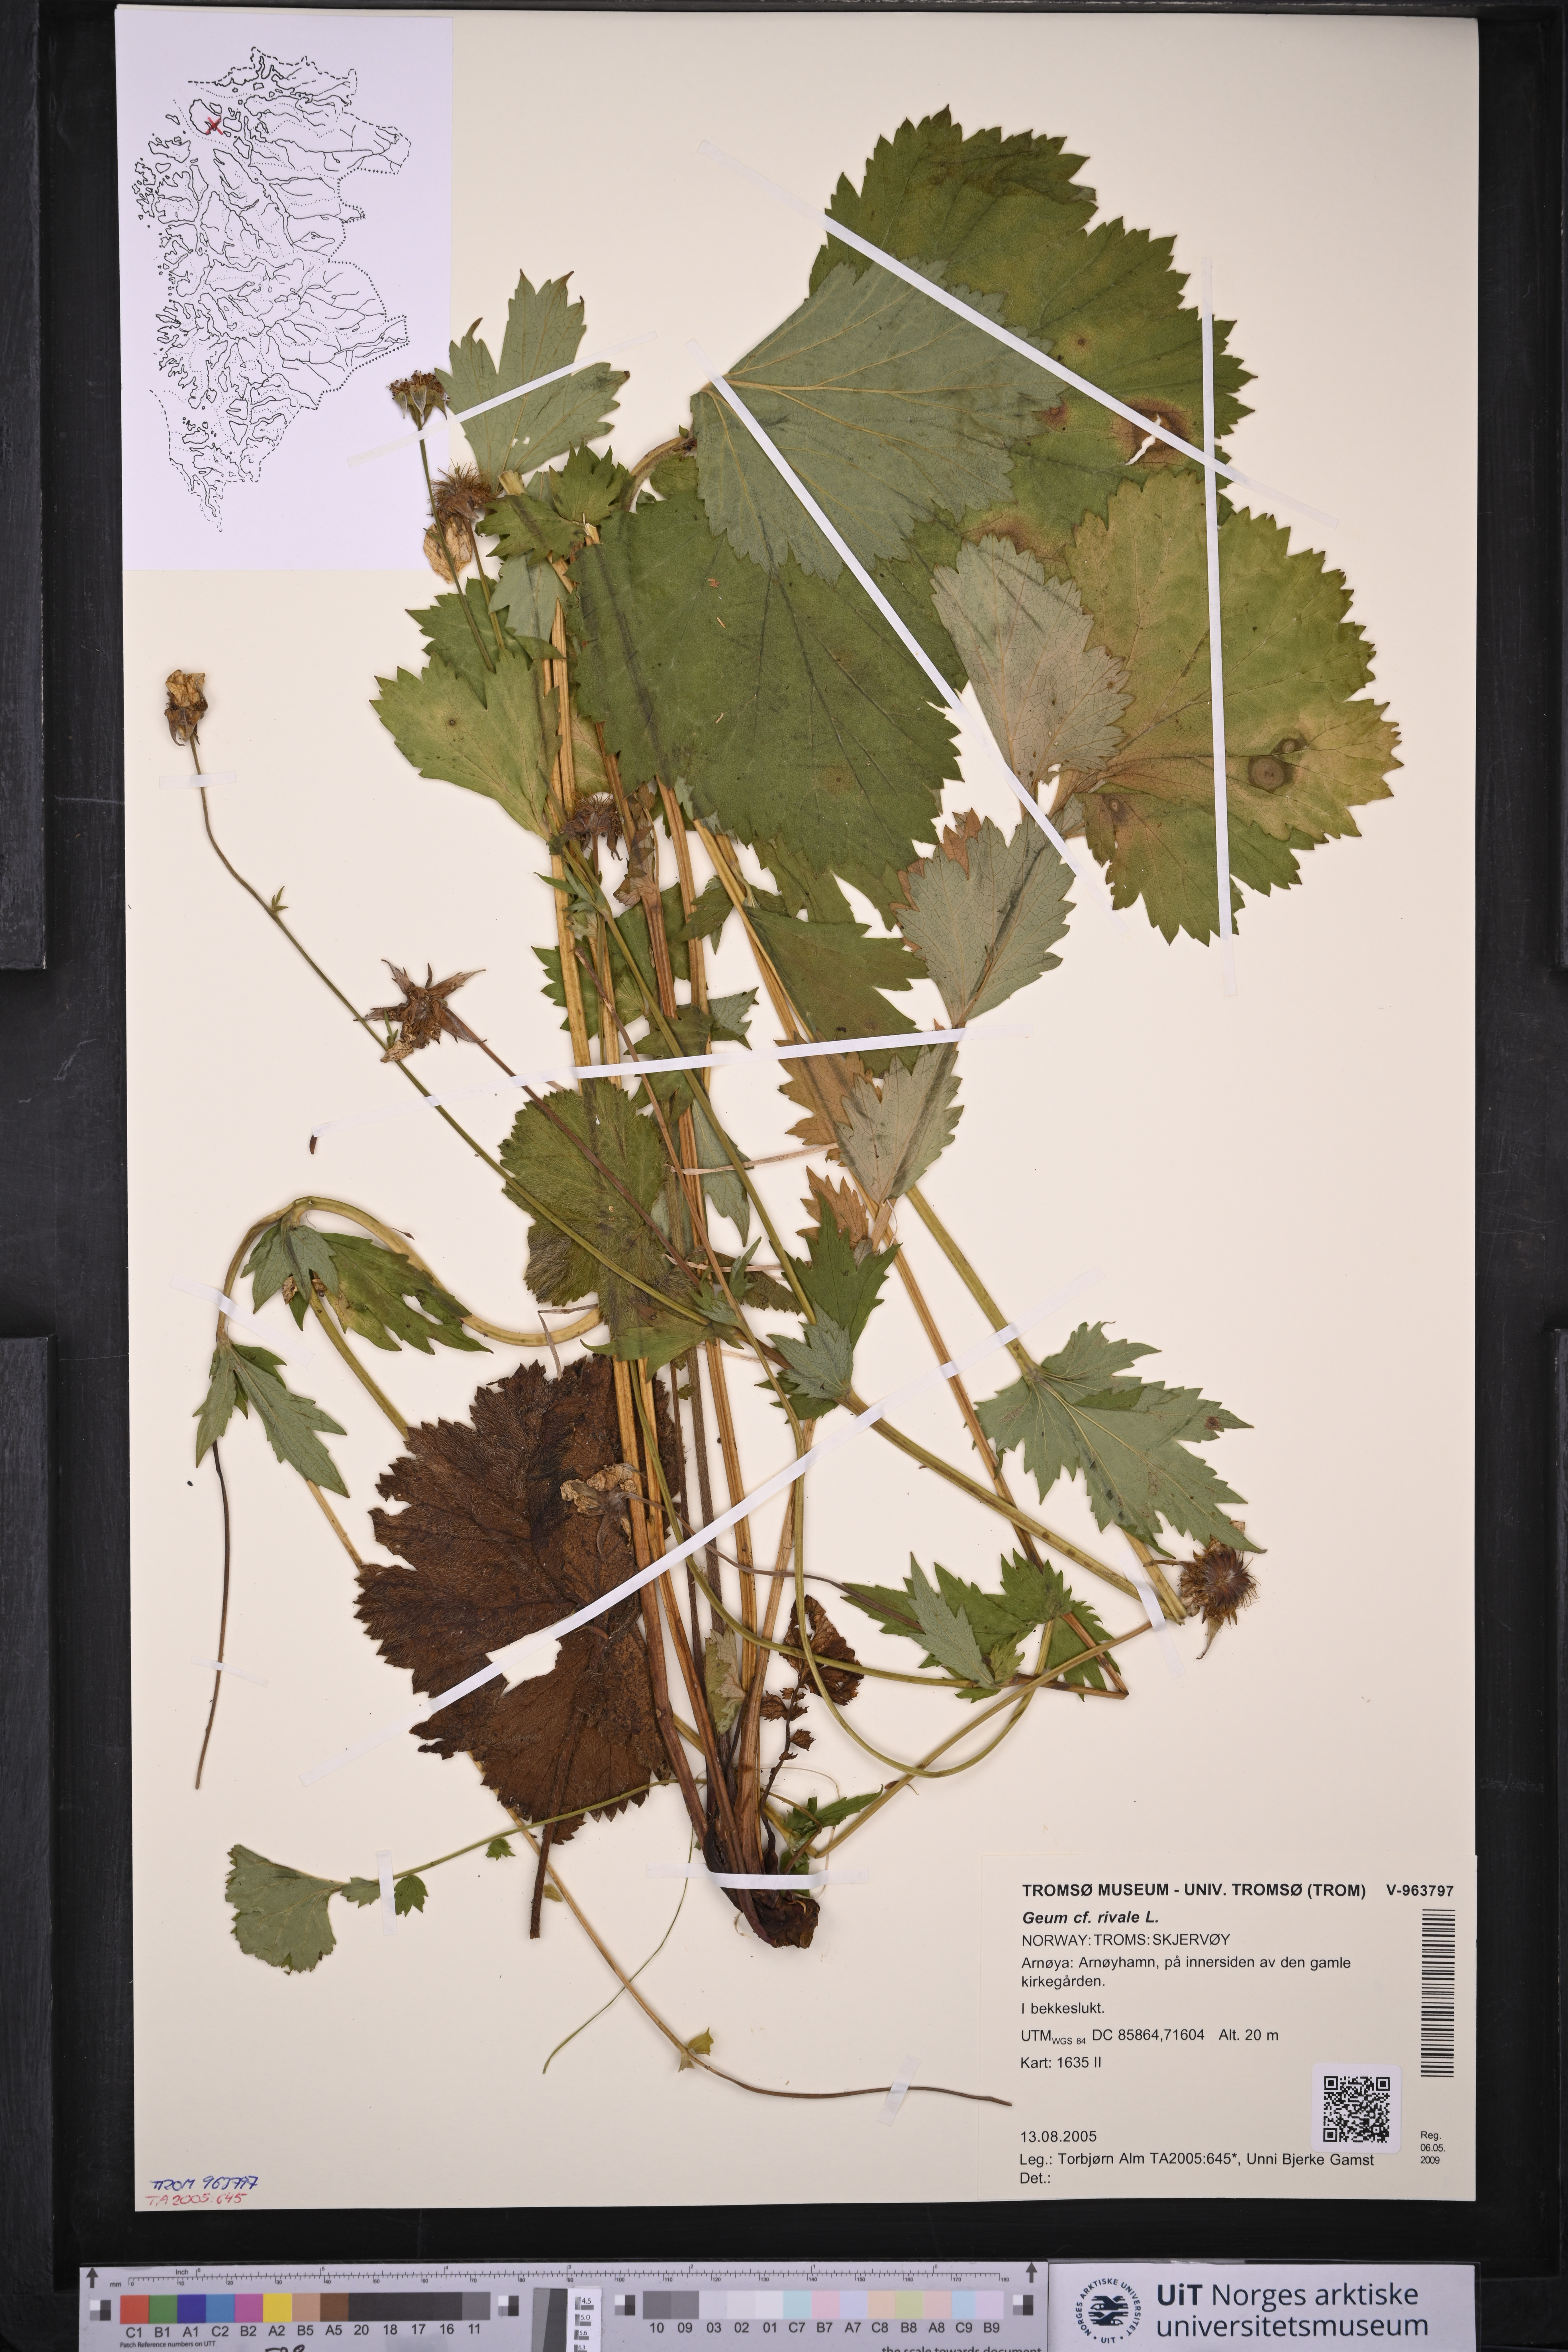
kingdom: Plantae
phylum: Tracheophyta
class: Magnoliopsida
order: Rosales
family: Rosaceae
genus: Geum
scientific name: Geum rivale
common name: Water avens
